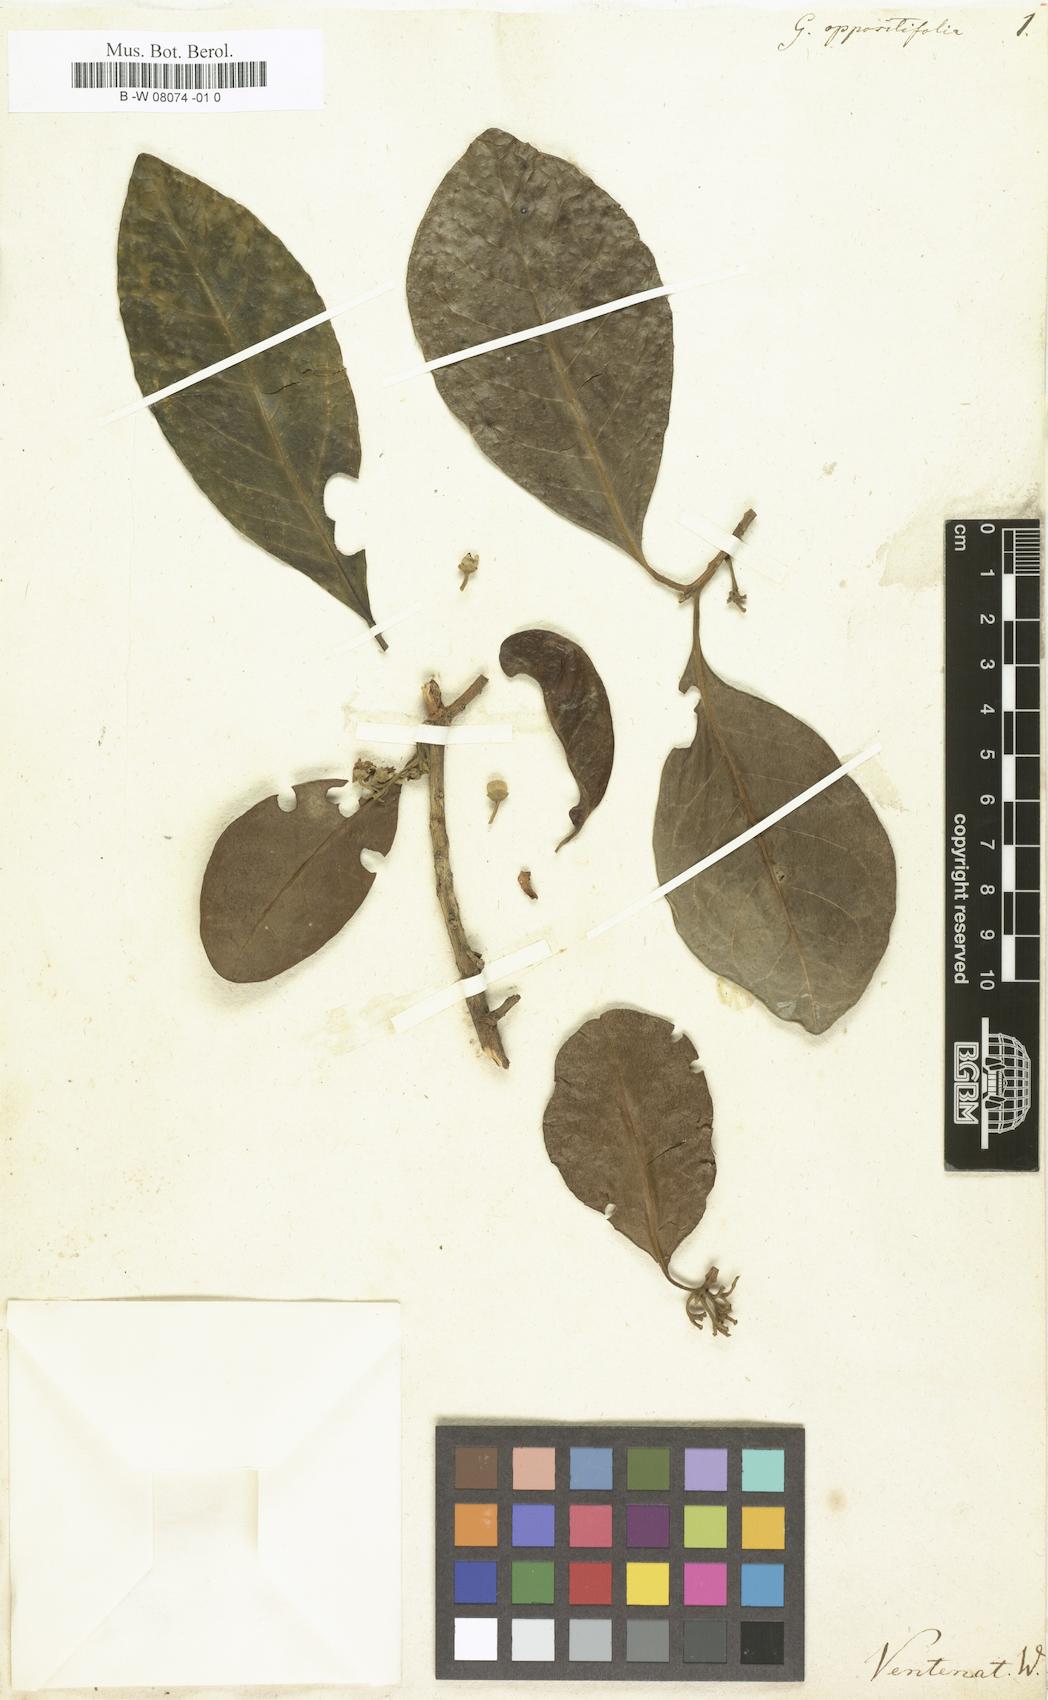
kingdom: Plantae
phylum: Tracheophyta
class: Magnoliopsida
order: Sapindales
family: Meliaceae
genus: Turraea
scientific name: Turraea oppositifolia
